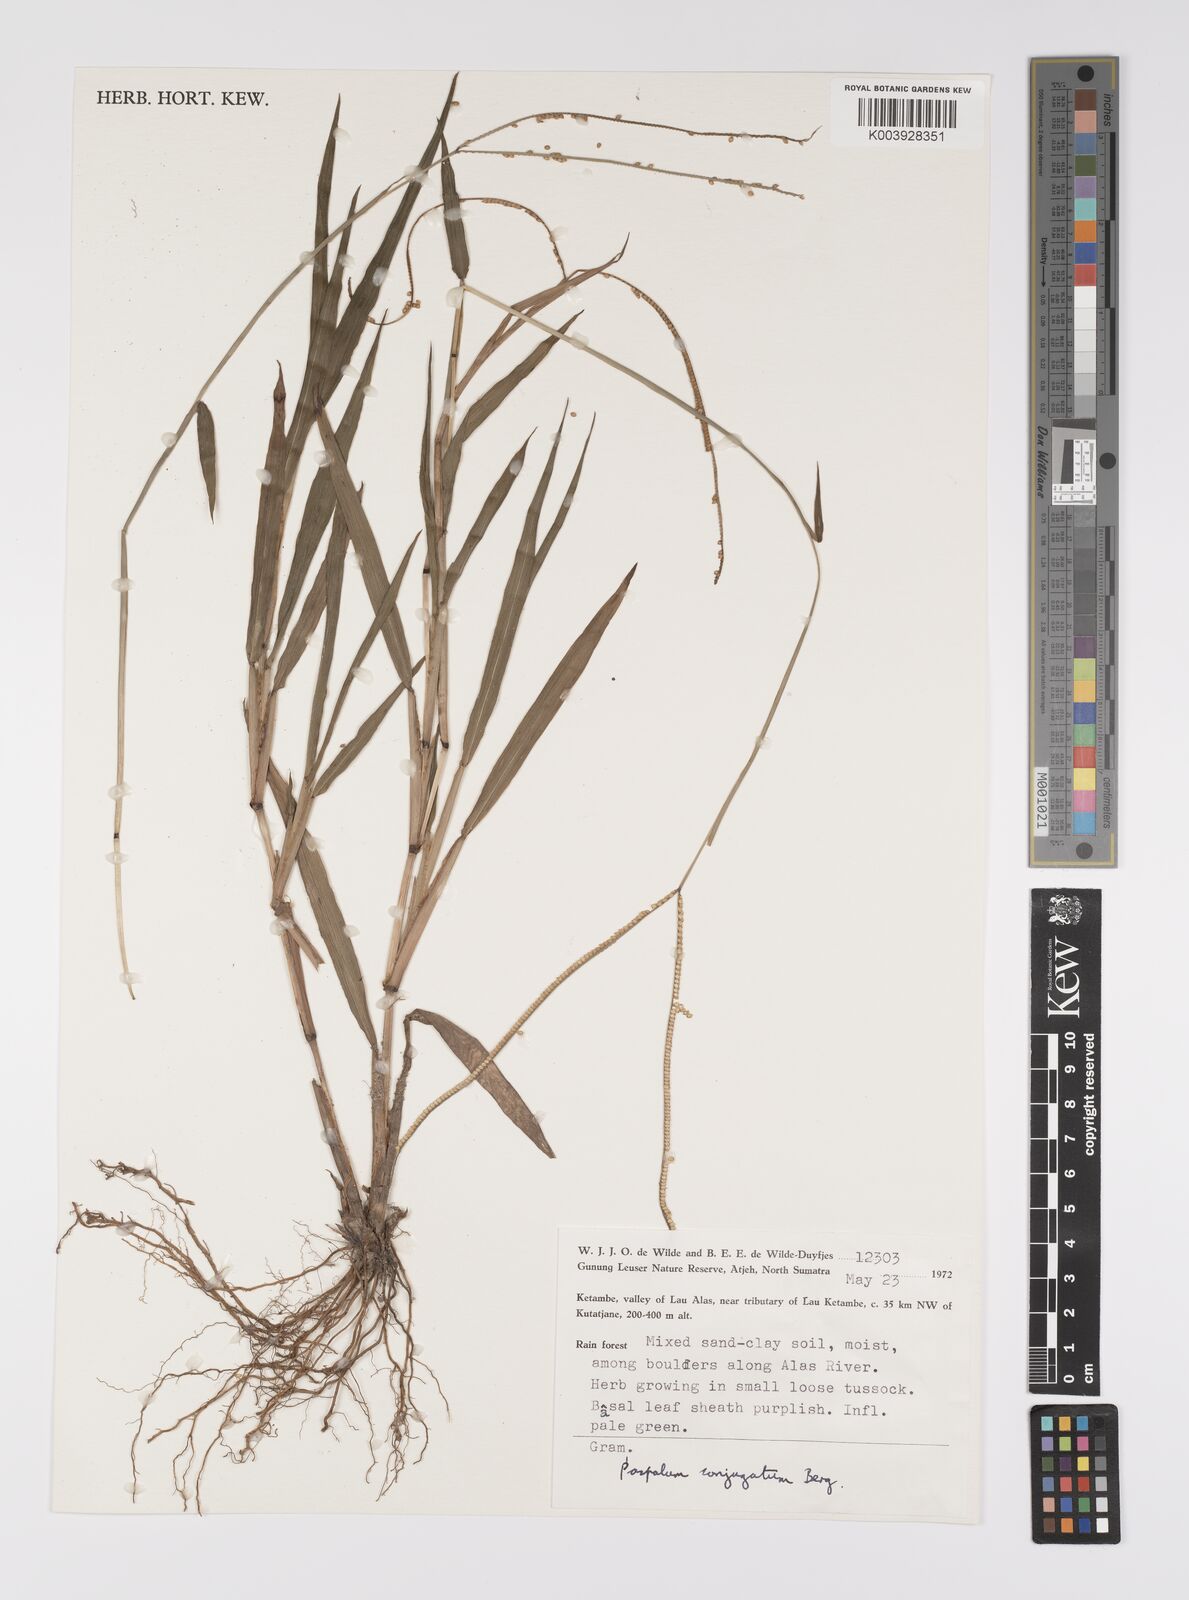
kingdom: Plantae
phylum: Tracheophyta
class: Liliopsida
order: Poales
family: Poaceae
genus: Paspalum
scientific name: Paspalum conjugatum
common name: Hilograss
